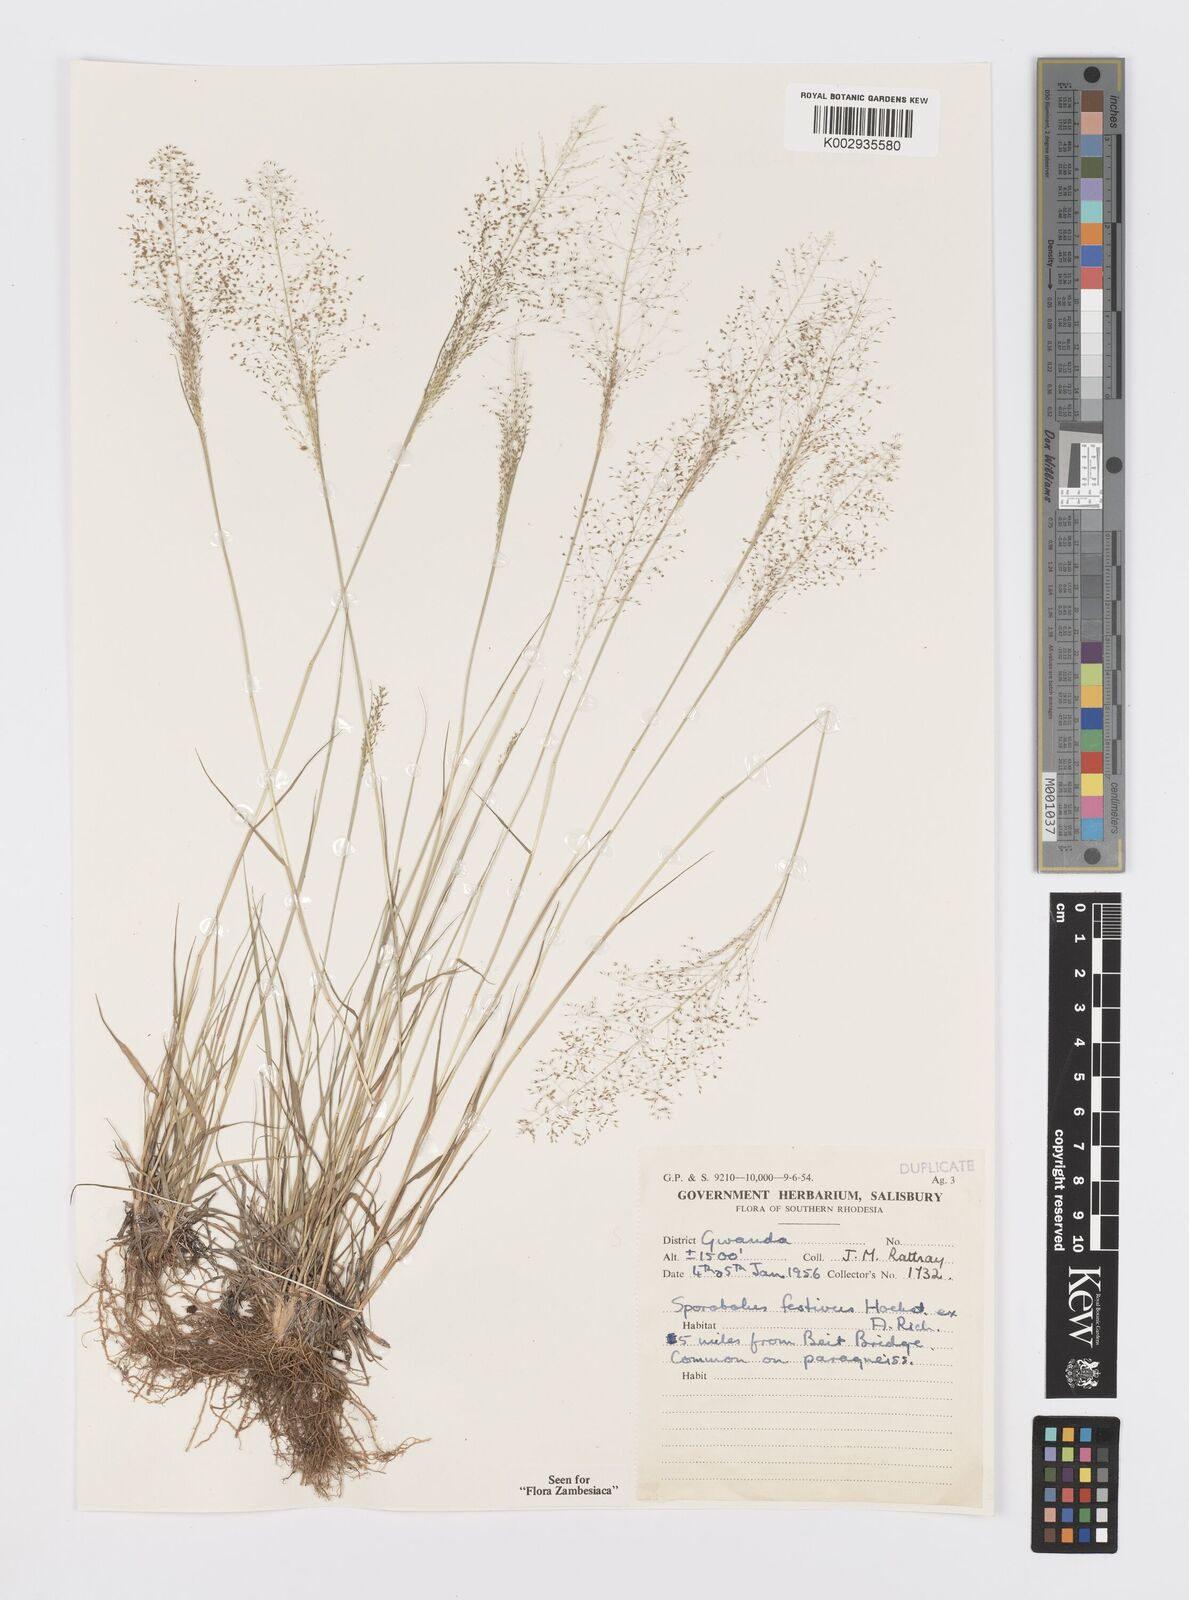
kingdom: Plantae
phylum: Tracheophyta
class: Liliopsida
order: Poales
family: Poaceae
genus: Sporobolus
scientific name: Sporobolus festivus
